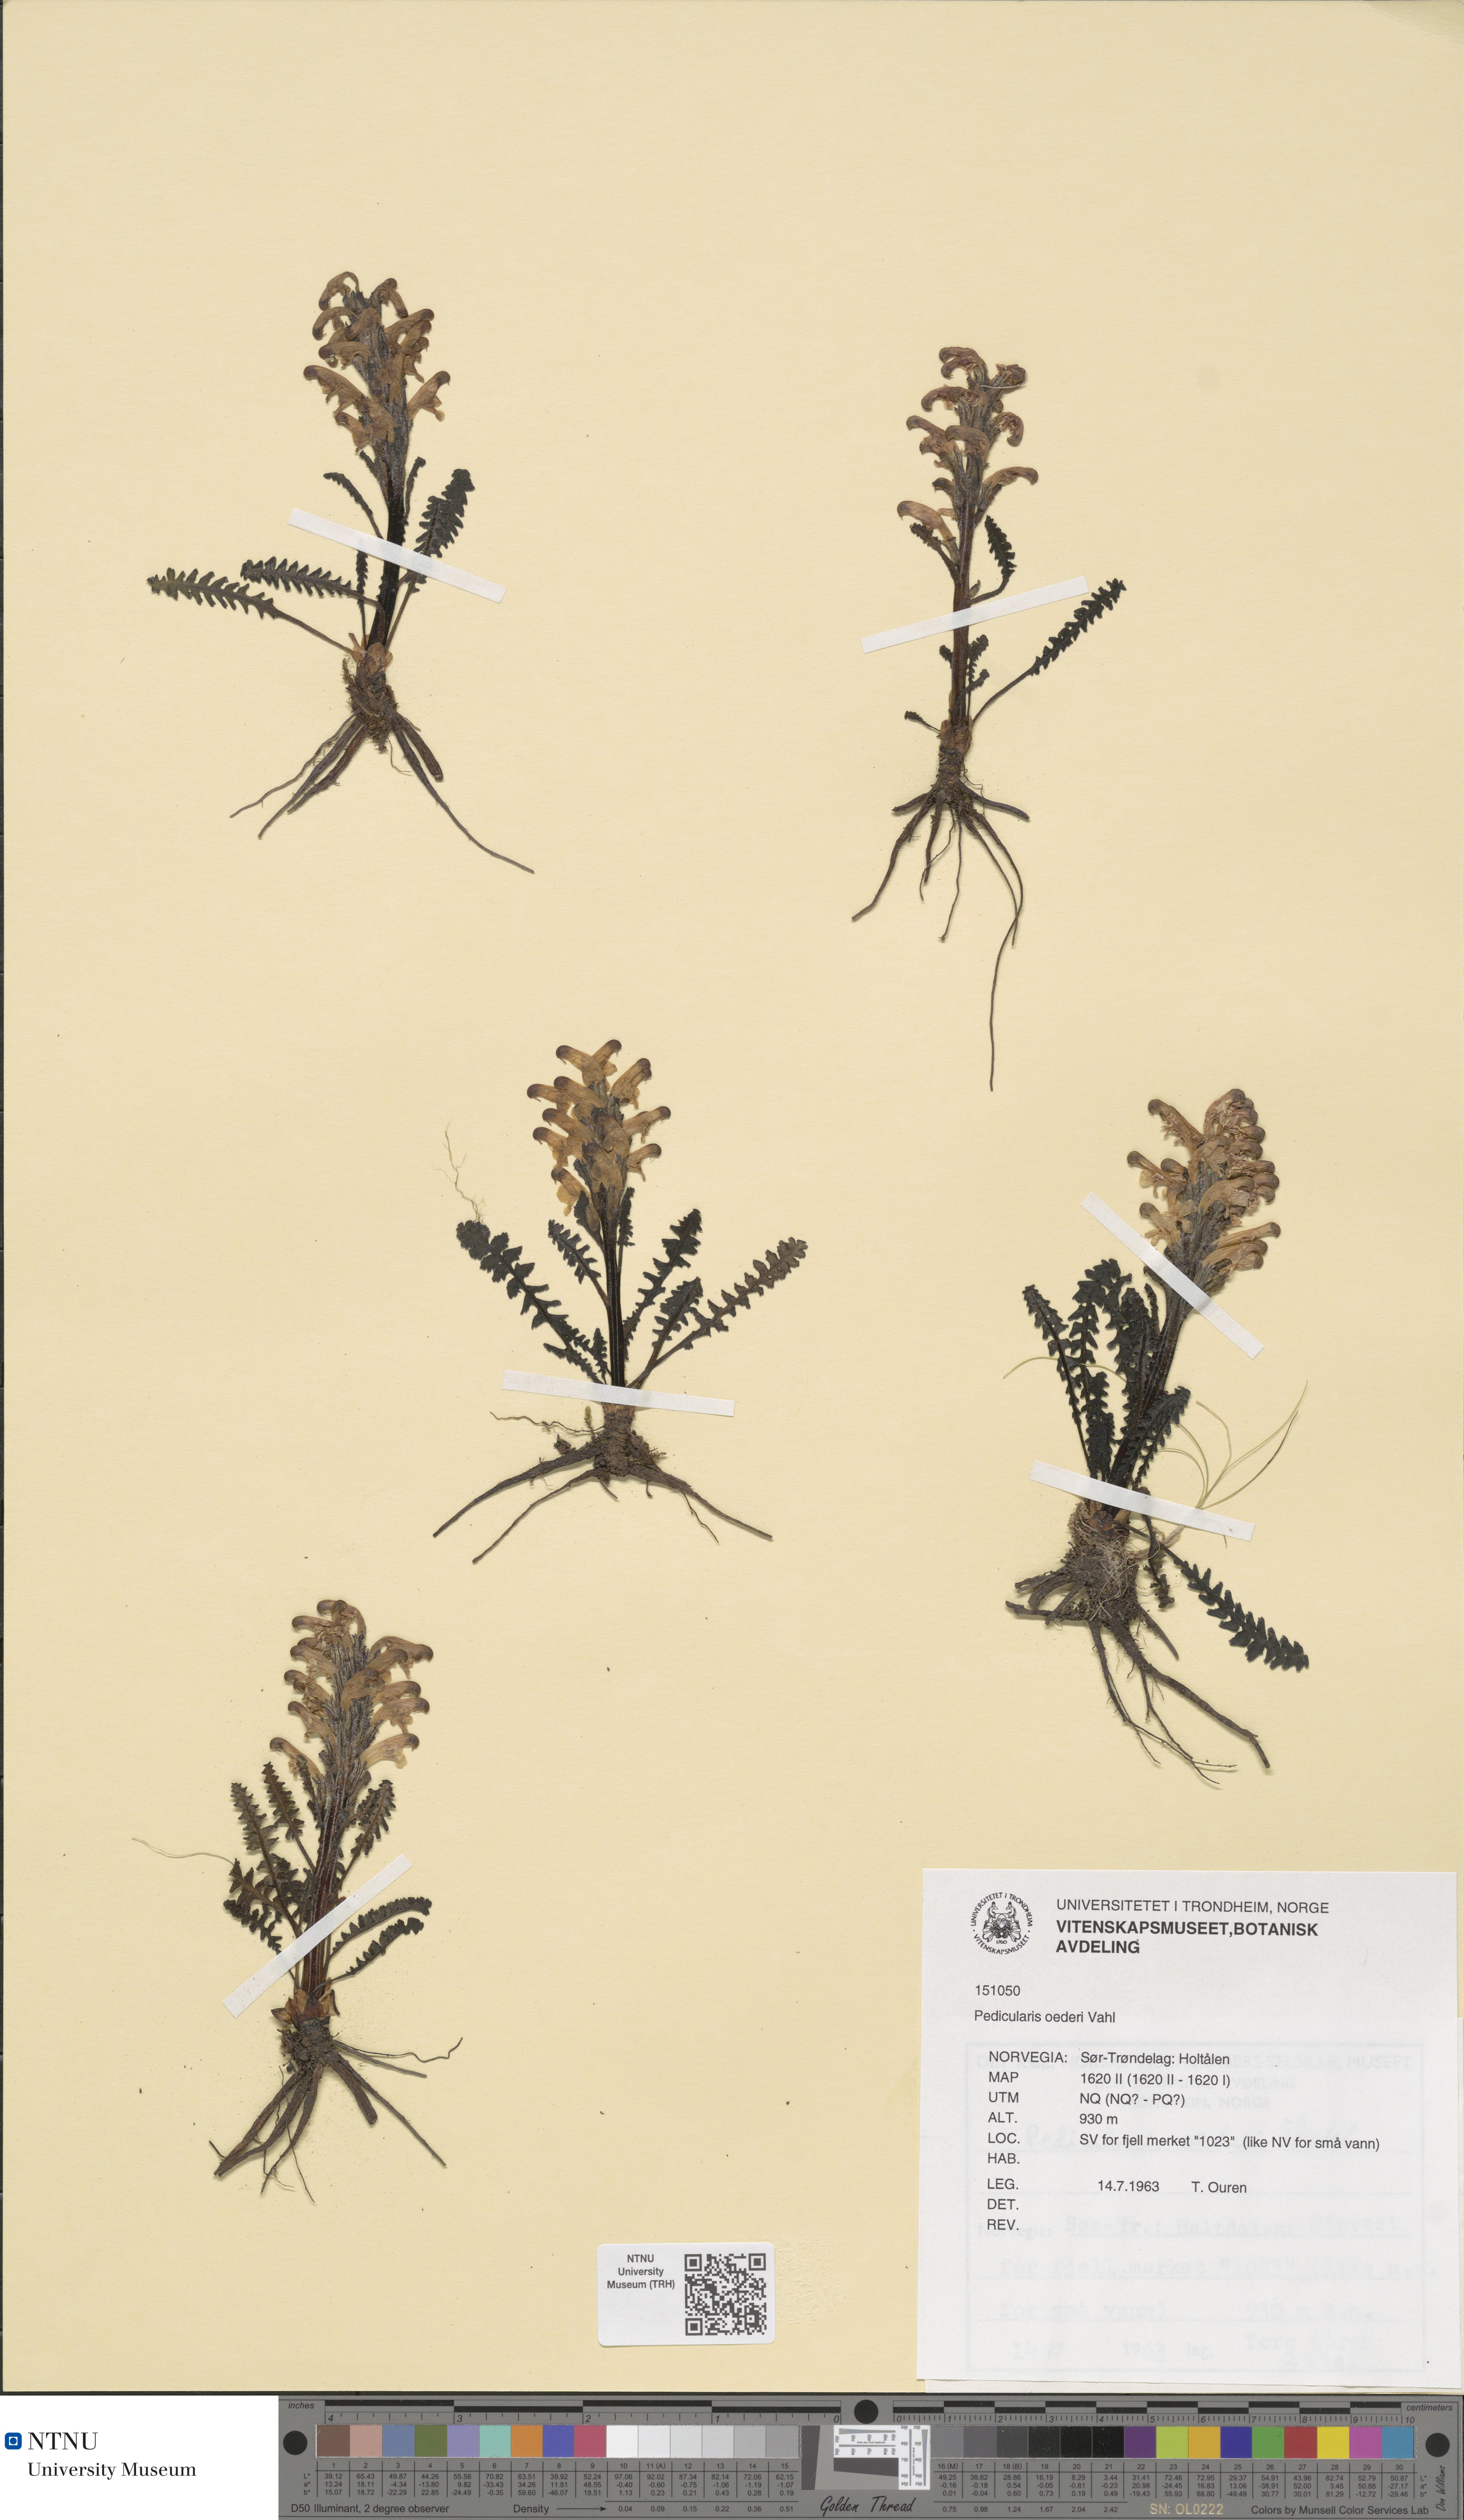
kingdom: Plantae
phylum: Tracheophyta
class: Magnoliopsida
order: Lamiales
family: Orobanchaceae
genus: Pedicularis
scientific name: Pedicularis oederi
